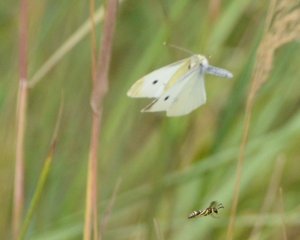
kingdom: Animalia
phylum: Arthropoda
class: Insecta
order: Lepidoptera
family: Pieridae
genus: Pieris
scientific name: Pieris rapae
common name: Cabbage White
